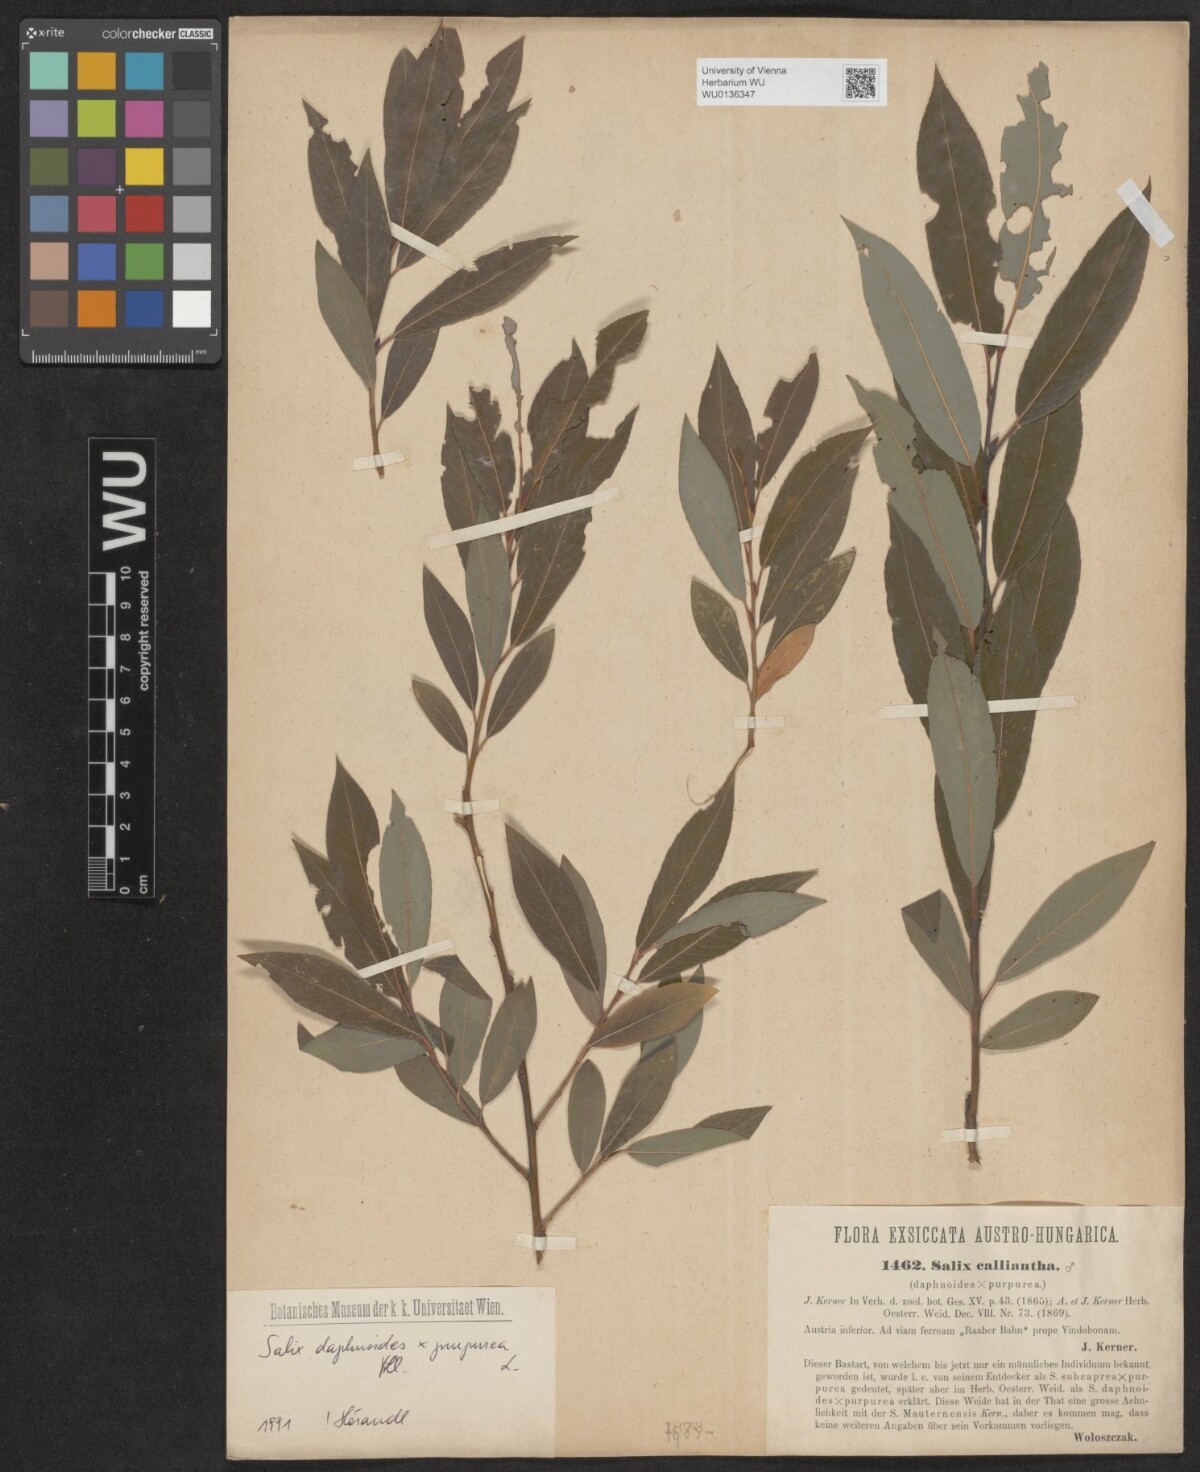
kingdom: Plantae
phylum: Tracheophyta
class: Magnoliopsida
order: Malpighiales
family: Salicaceae
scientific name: Salicaceae
